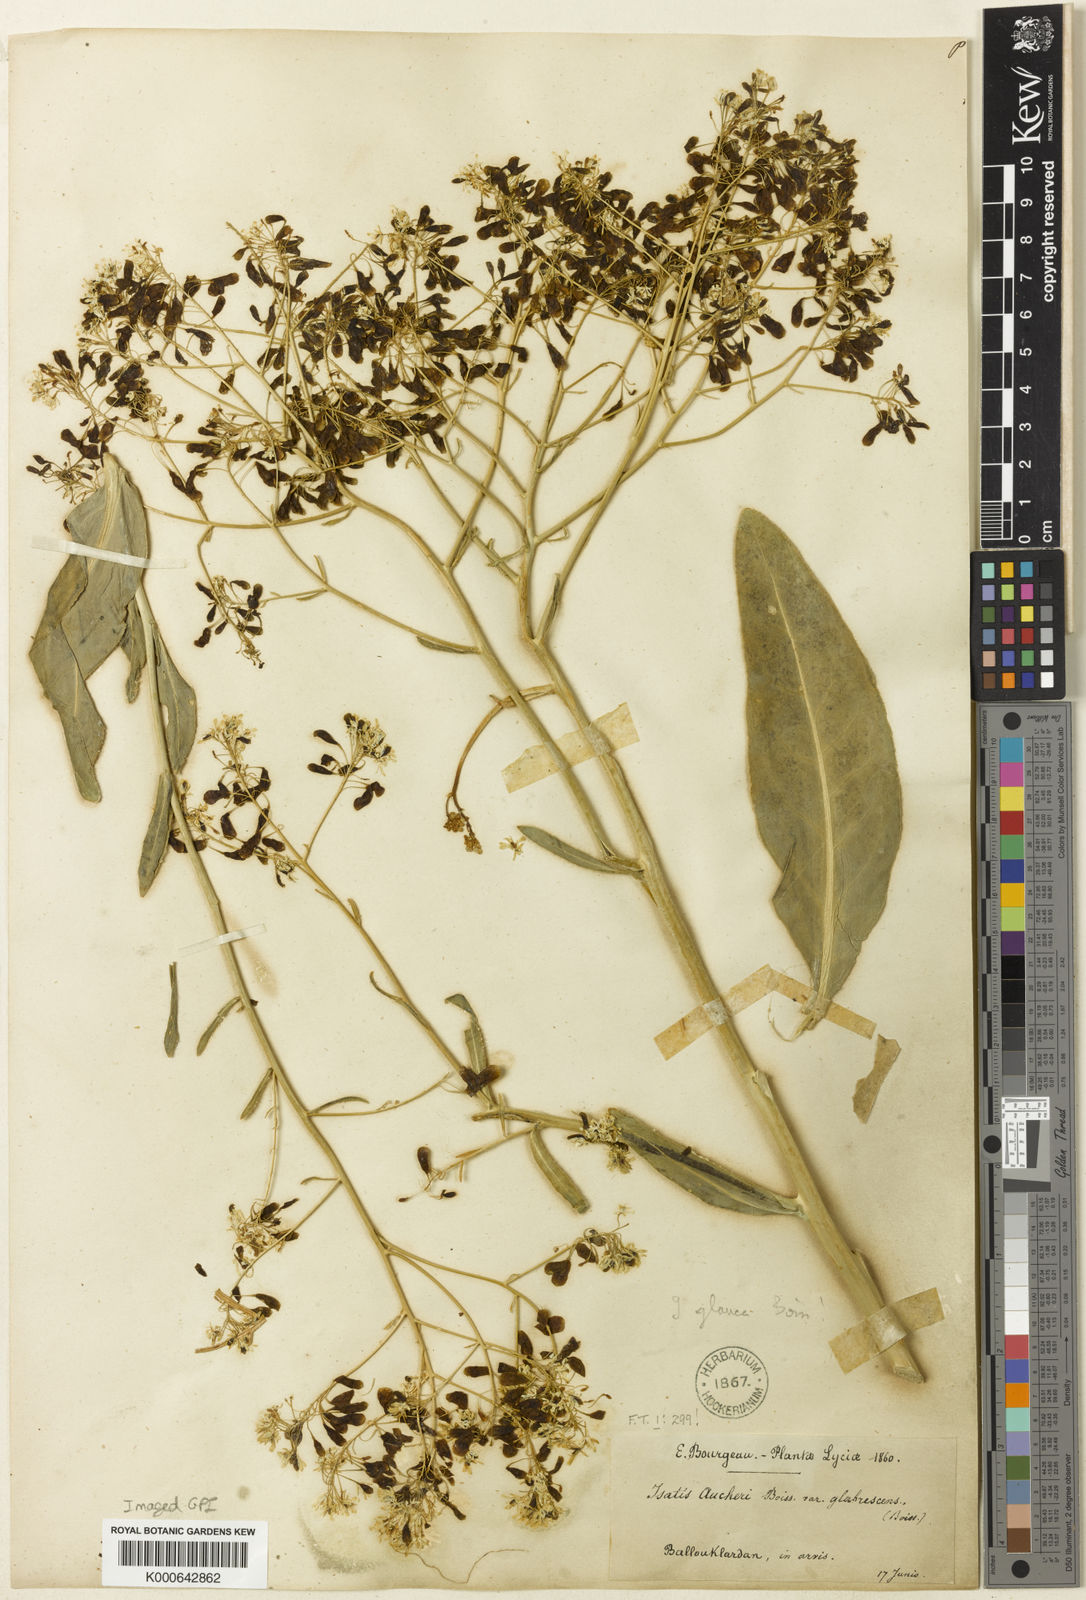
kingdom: Plantae
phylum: Tracheophyta
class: Magnoliopsida
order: Brassicales
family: Brassicaceae
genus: Isatis
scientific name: Isatis glauca
